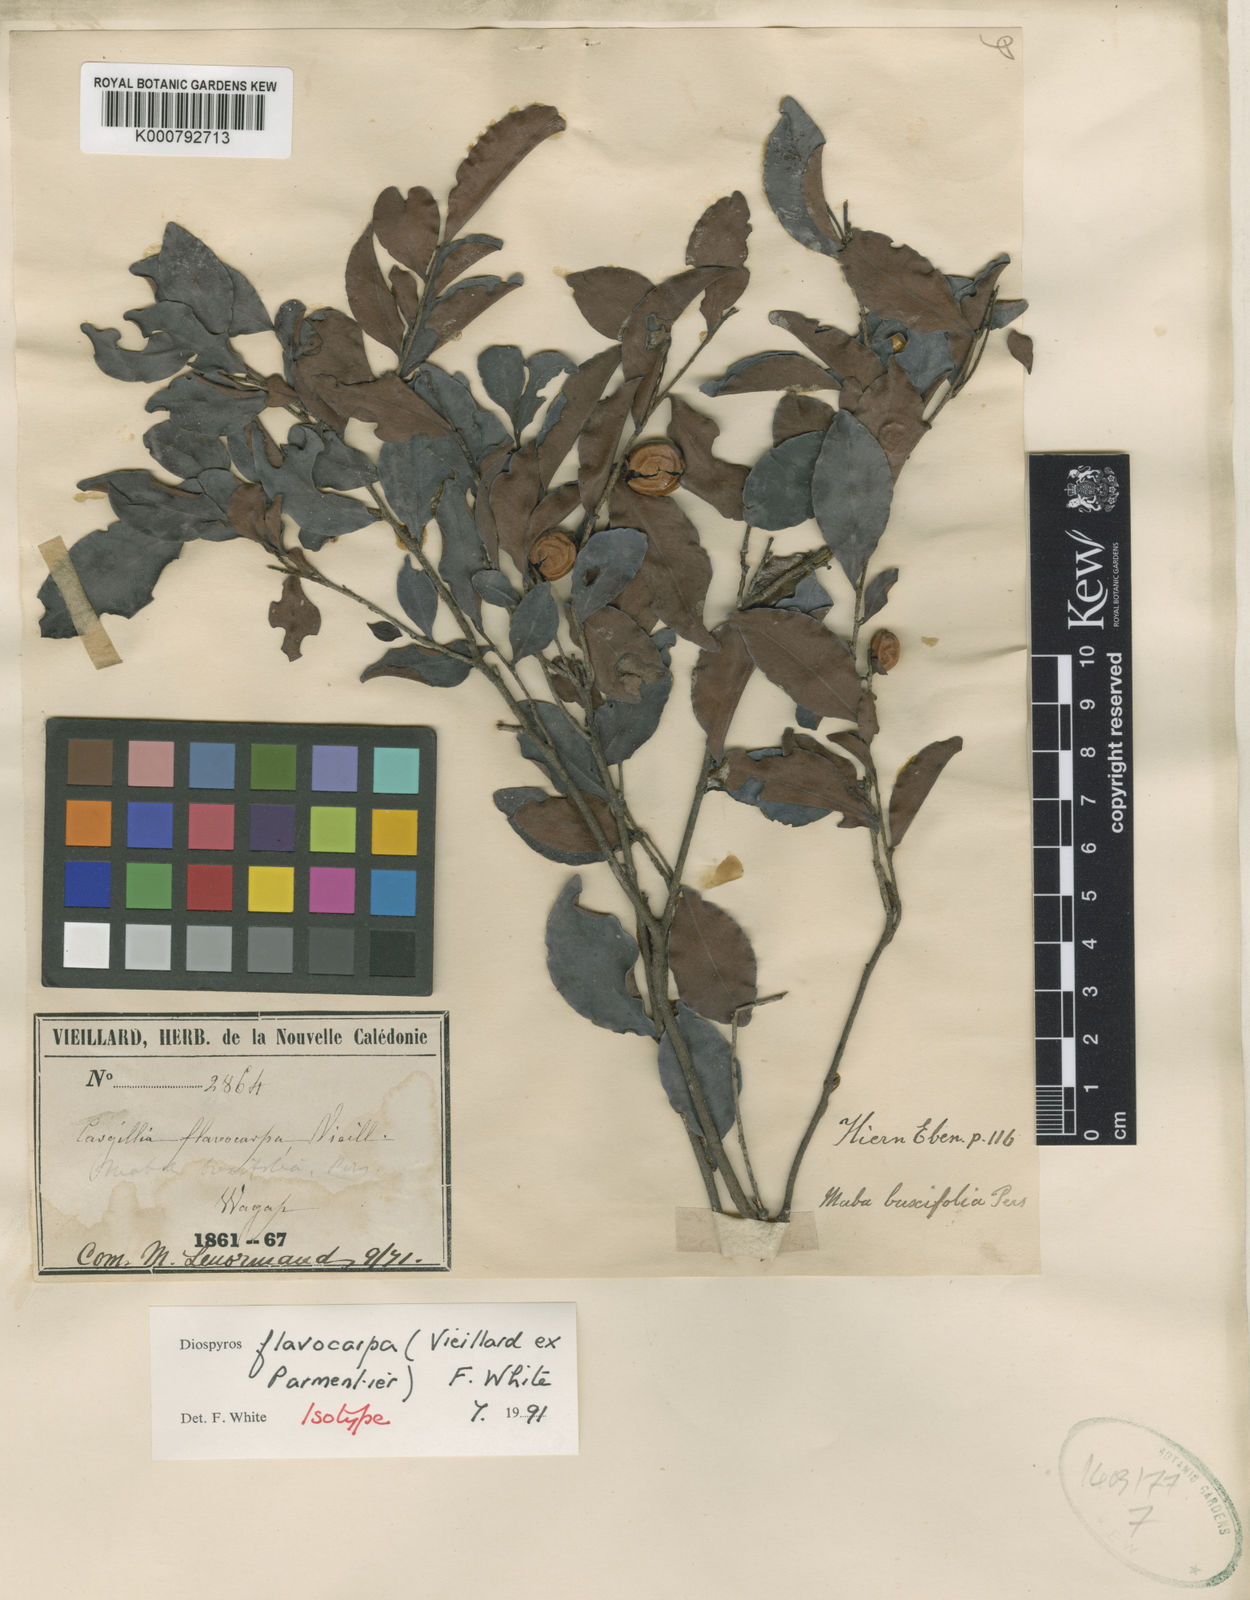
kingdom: Plantae
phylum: Tracheophyta
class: Magnoliopsida
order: Ericales
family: Ebenaceae
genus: Diospyros
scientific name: Diospyros flavocarpa
